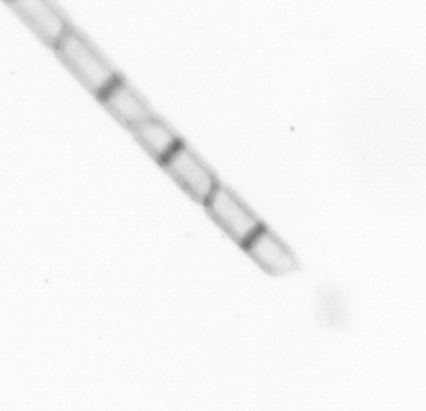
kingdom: Chromista
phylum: Ochrophyta
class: Bacillariophyceae
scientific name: Bacillariophyceae
